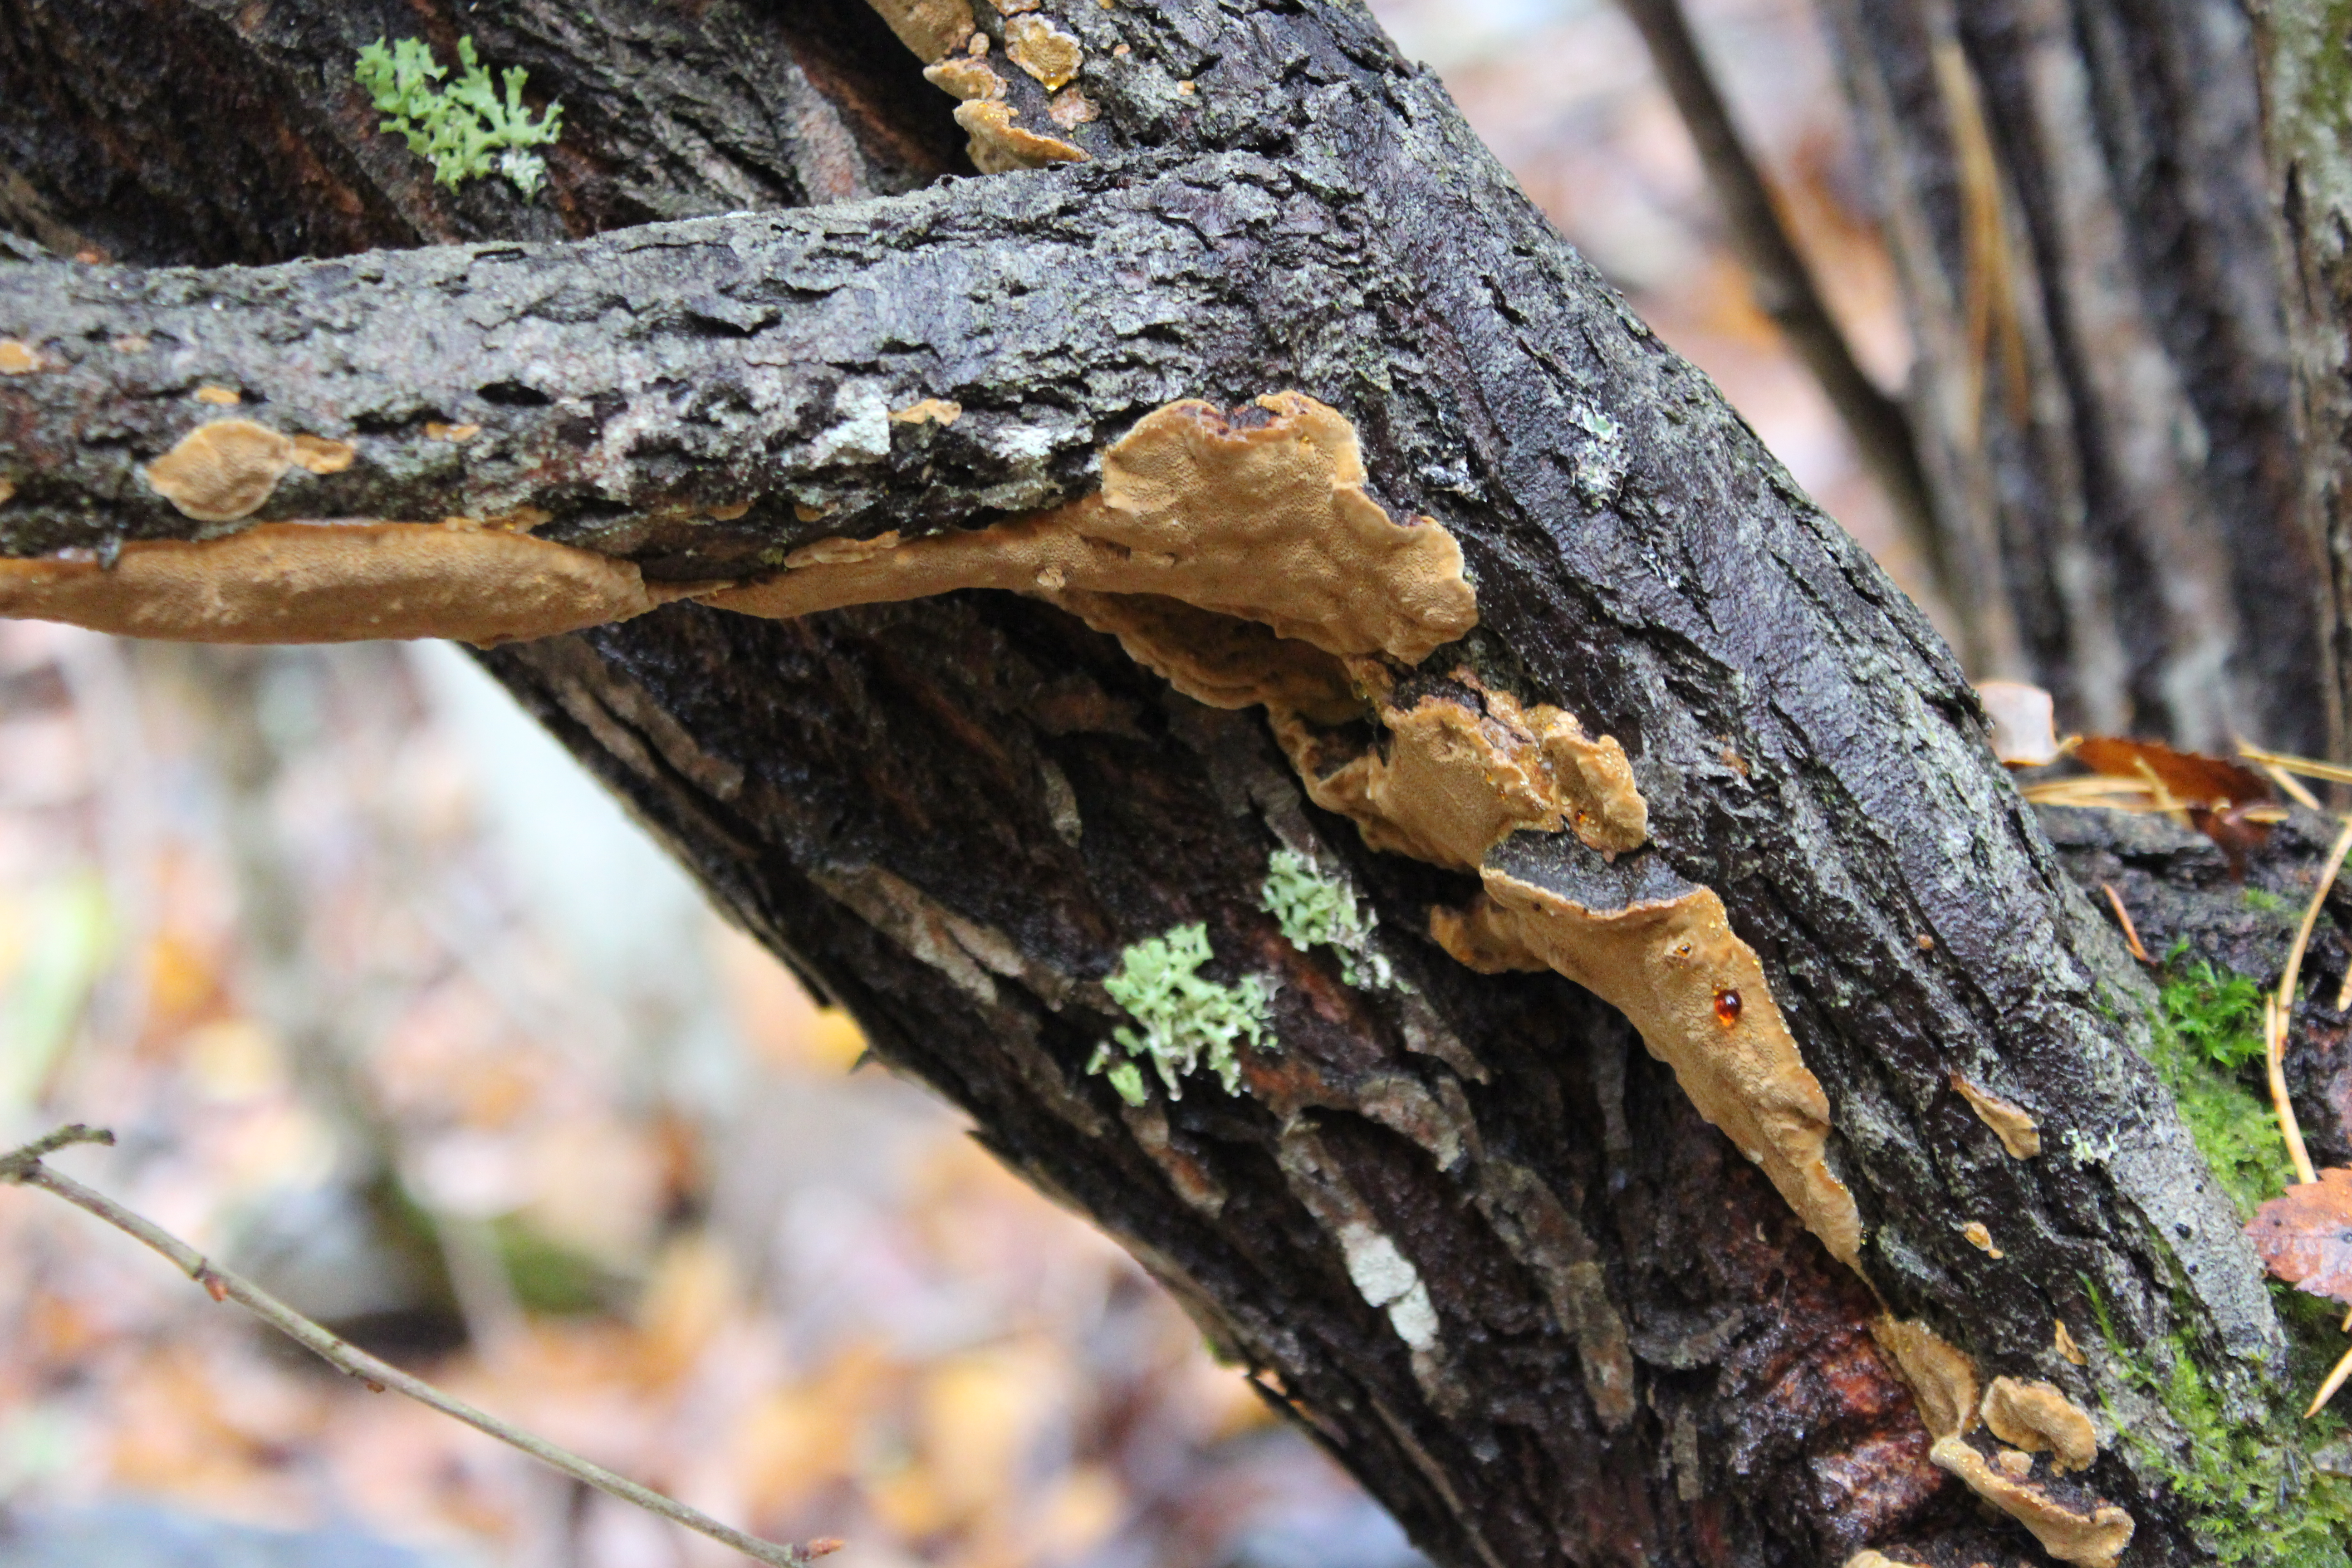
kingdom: Fungi
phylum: Basidiomycota
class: Agaricomycetes
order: Hymenochaetales
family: Hymenochaetaceae
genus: Phellinopsis
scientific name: Phellinopsis conchata
